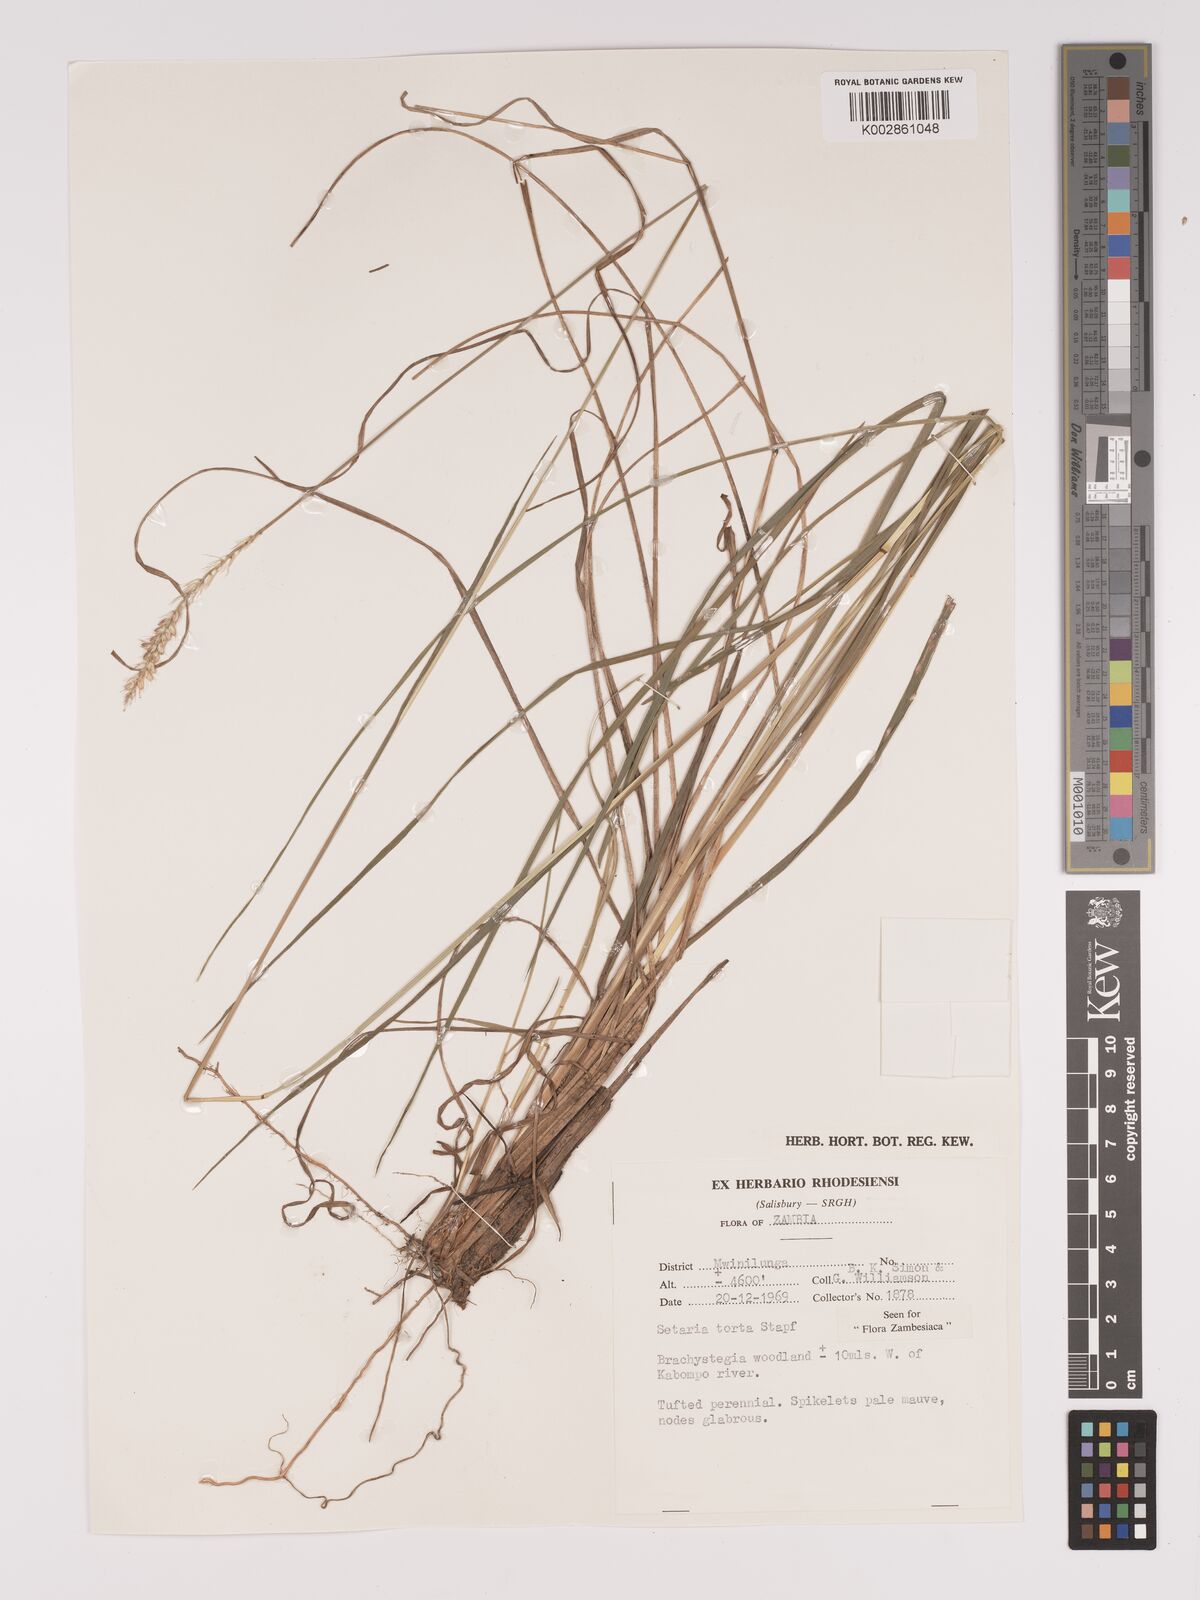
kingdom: Plantae
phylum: Tracheophyta
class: Liliopsida
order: Poales
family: Poaceae
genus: Setaria
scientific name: Setaria sphacelata
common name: African bristlegrass
